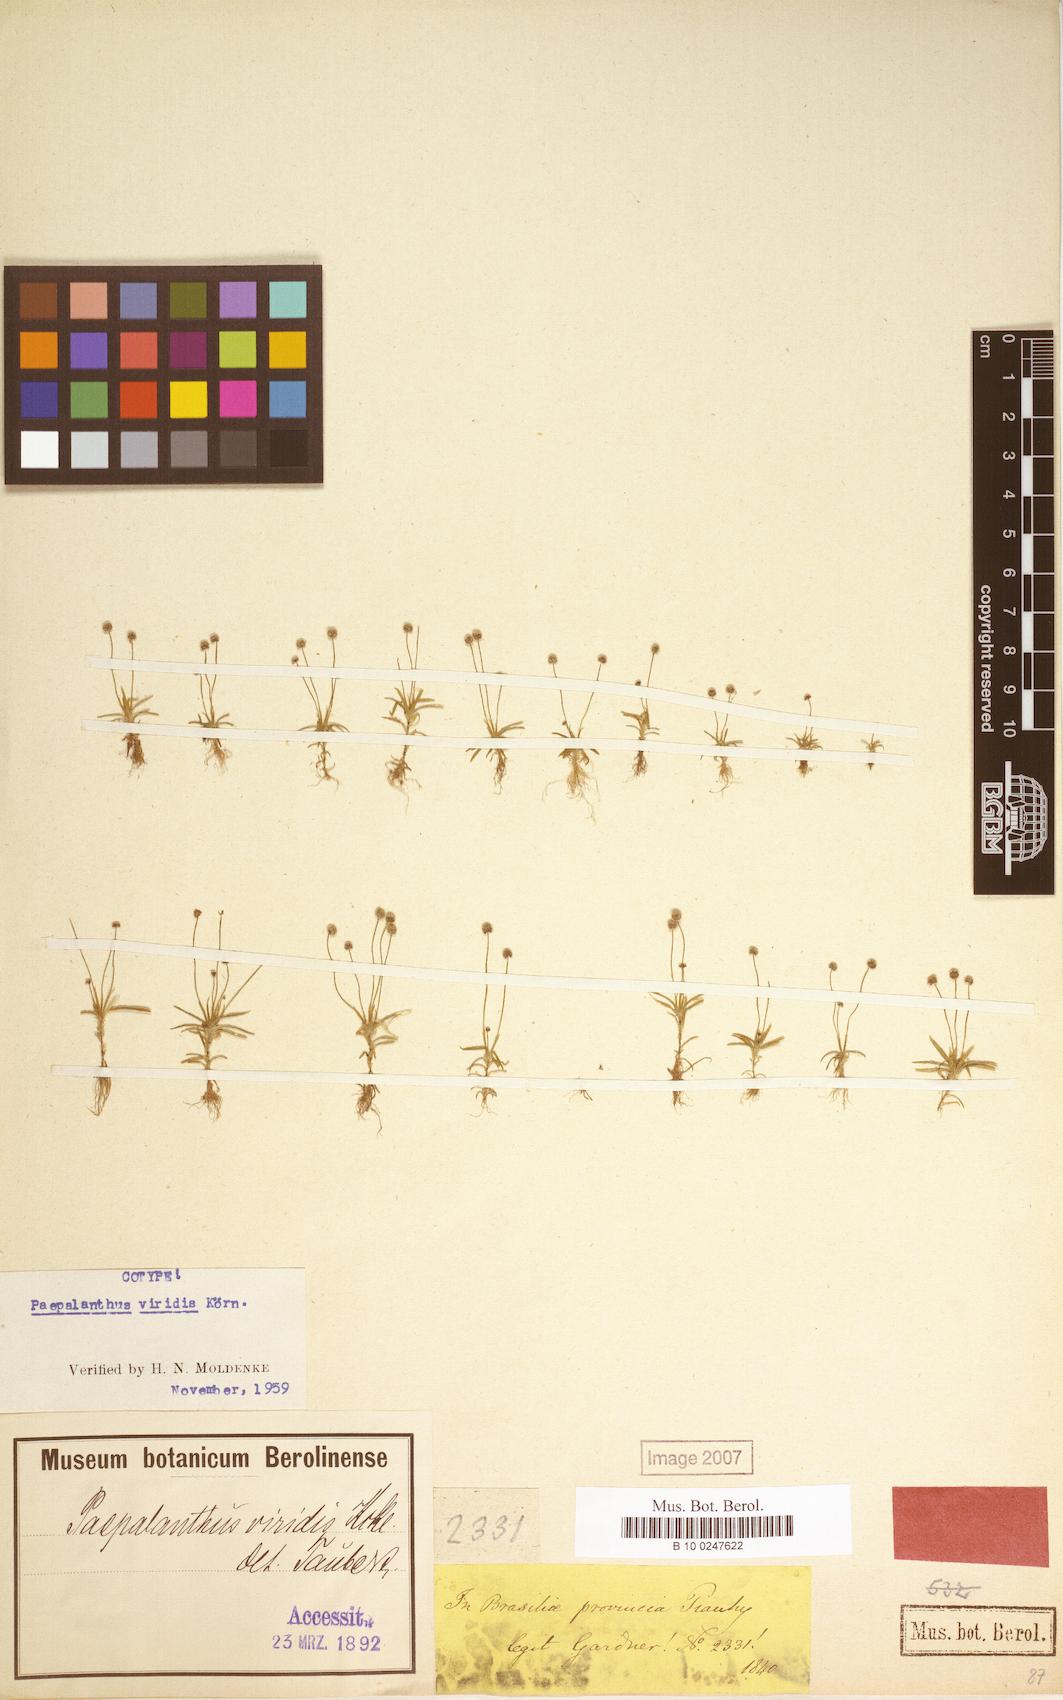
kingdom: Plantae
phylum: Tracheophyta
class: Liliopsida
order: Poales
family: Eriocaulaceae
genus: Paepalanthus
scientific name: Paepalanthus lamarckii
